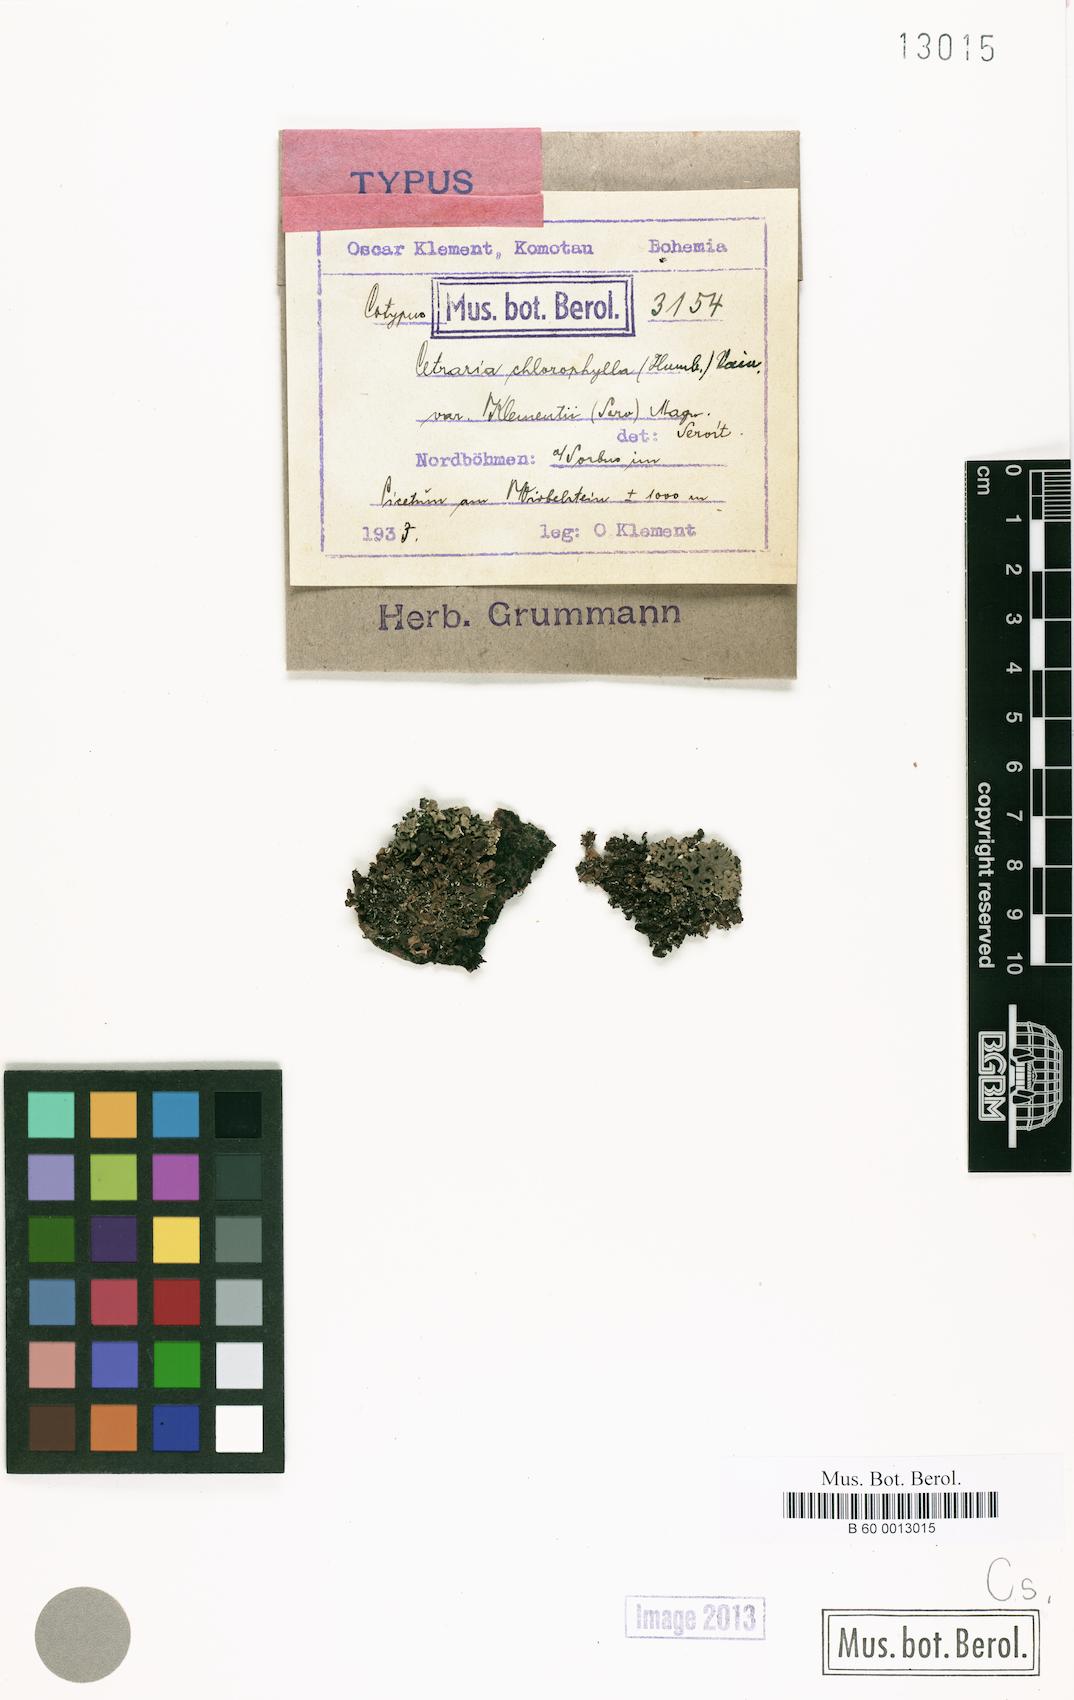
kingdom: Fungi
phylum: Ascomycota
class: Lecanoromycetes
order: Lecanorales
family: Parmeliaceae
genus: Nephromopsis
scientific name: Nephromopsis chlorophylla
